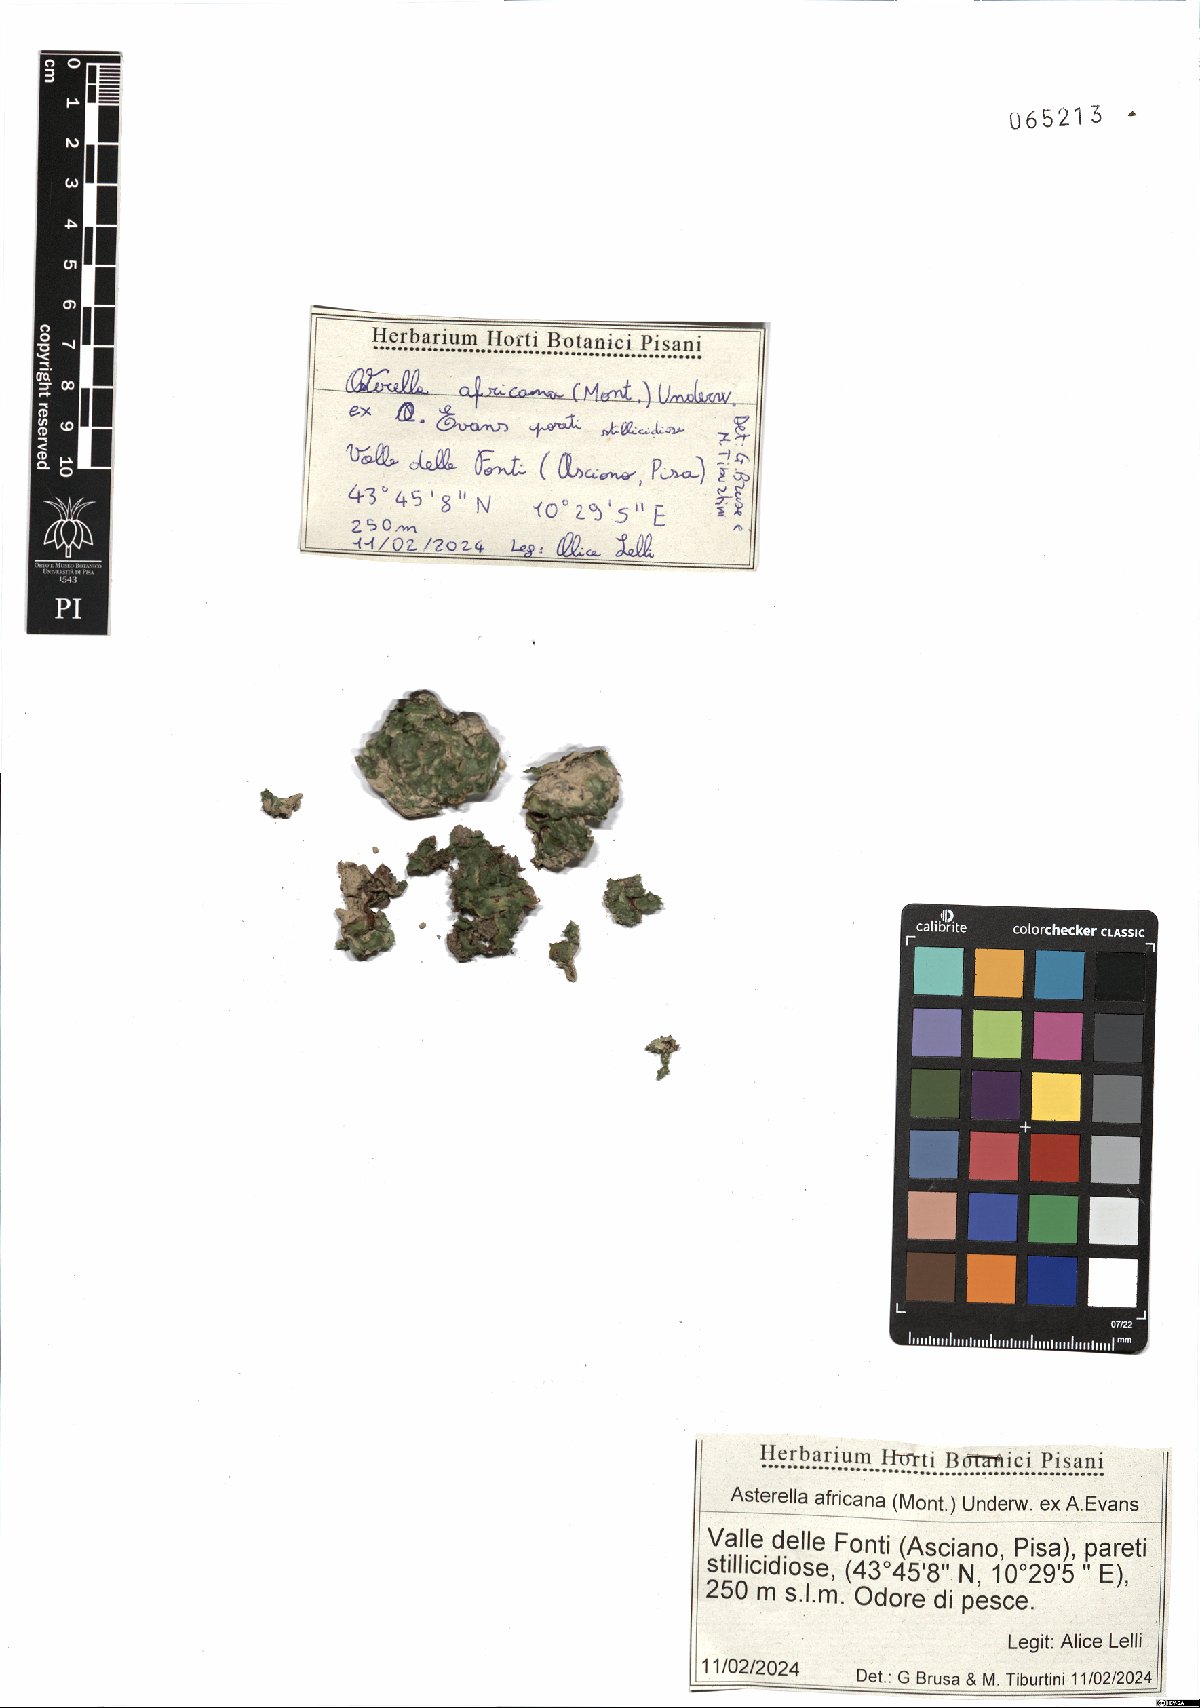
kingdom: Plantae
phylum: Marchantiophyta
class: Marchantiopsida
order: Marchantiales
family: Aytoniaceae
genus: Asterella
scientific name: Asterella africana
